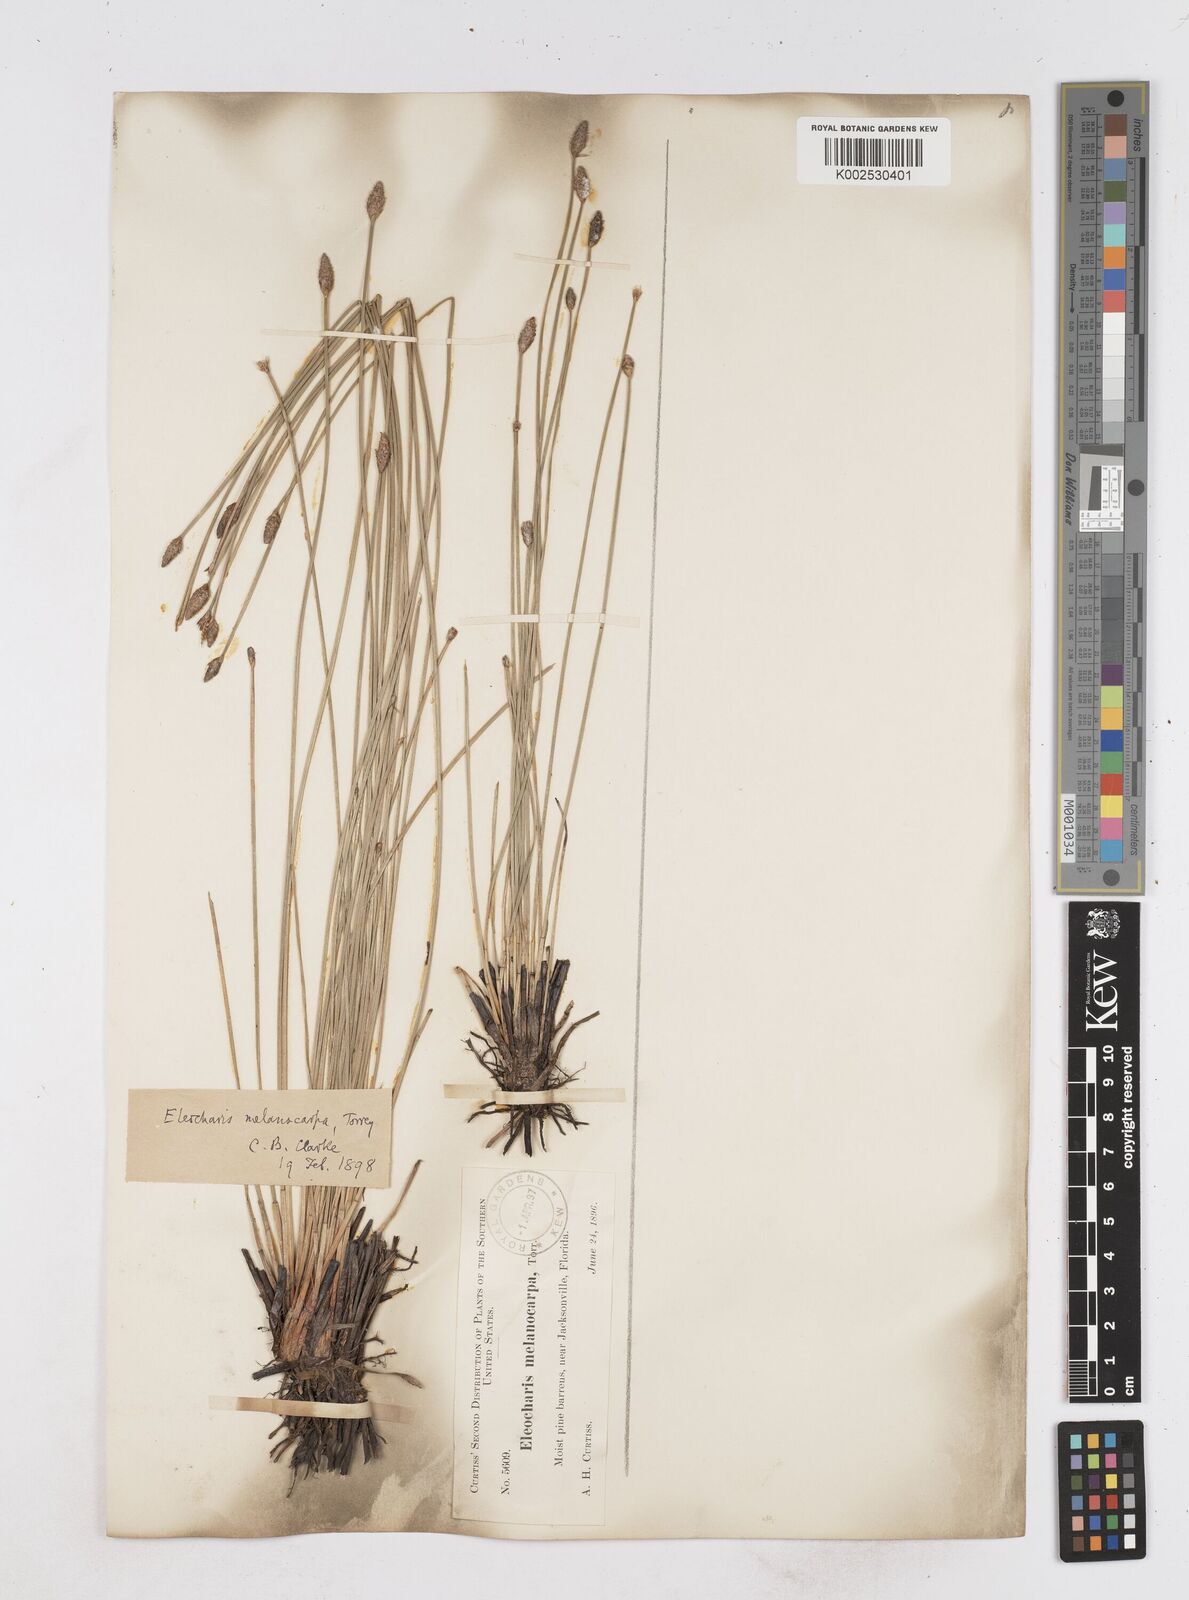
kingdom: Plantae
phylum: Tracheophyta
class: Liliopsida
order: Poales
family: Cyperaceae
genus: Eleocharis
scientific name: Eleocharis melanocarpa
